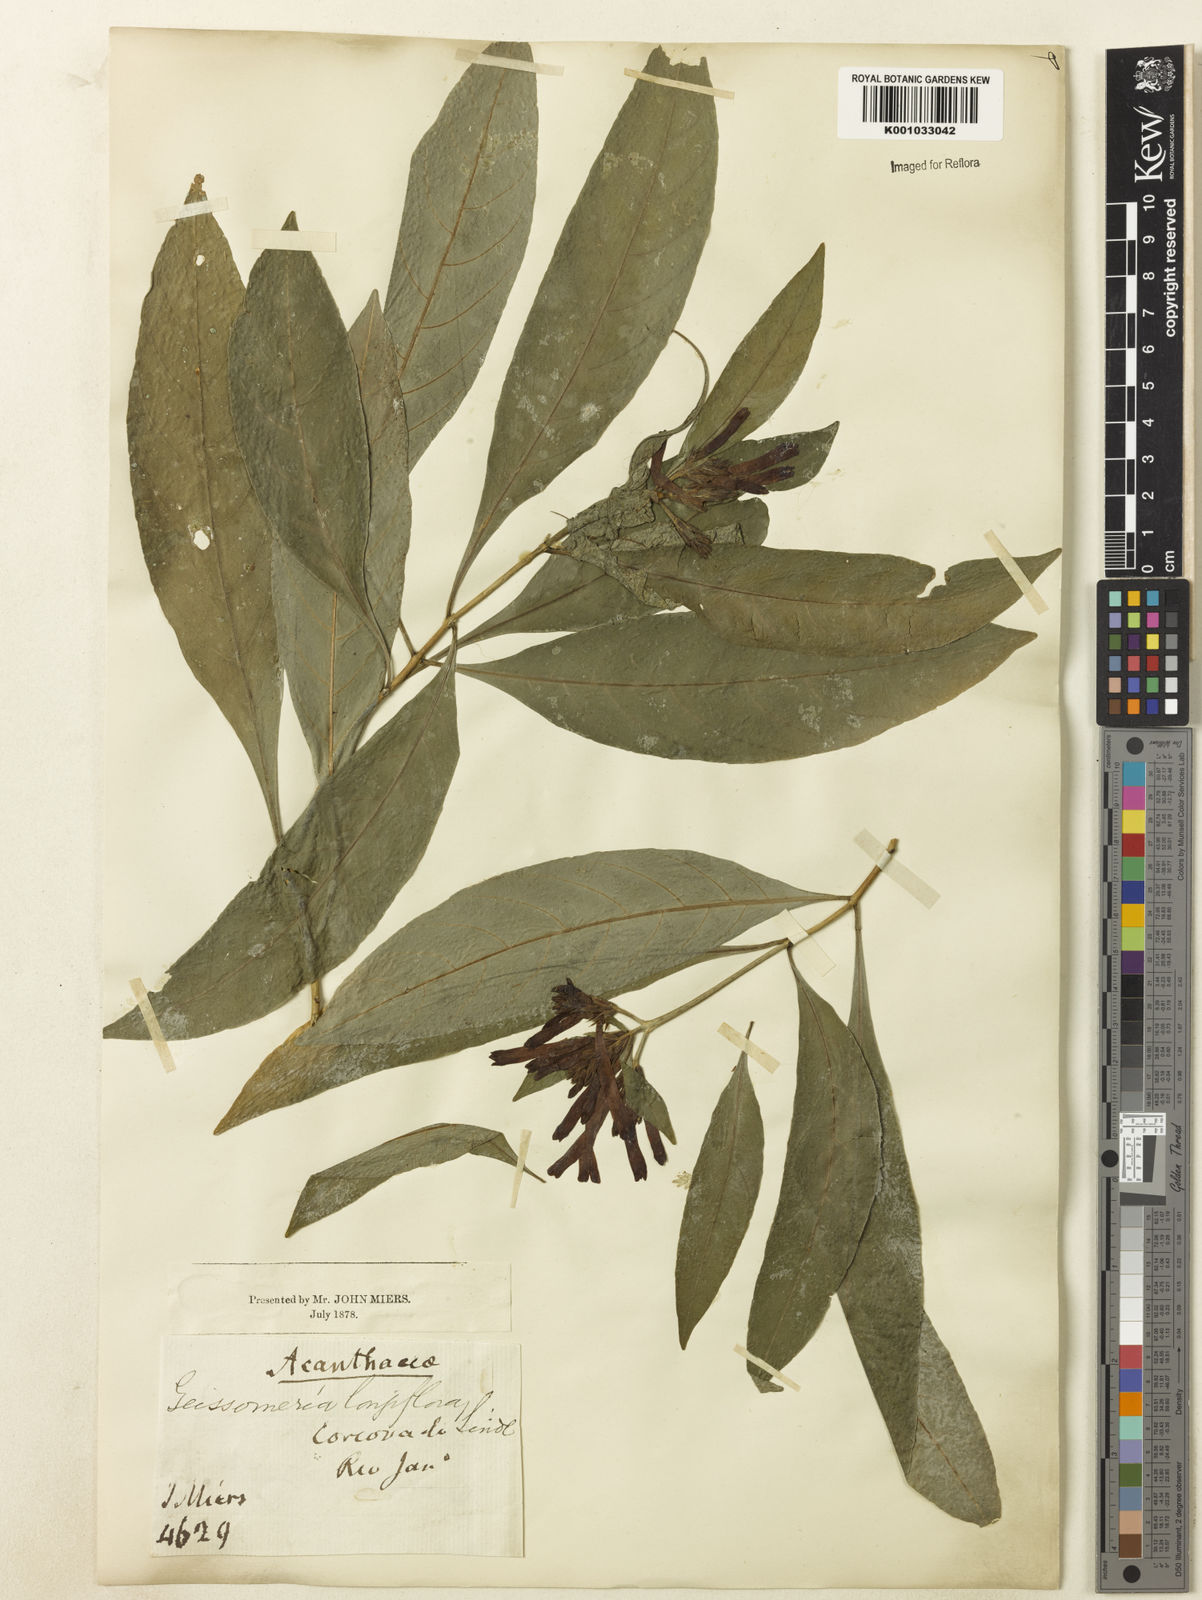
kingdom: Plantae
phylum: Tracheophyta
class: Magnoliopsida
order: Lamiales
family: Acanthaceae
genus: Aphelandra
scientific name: Aphelandra longiflora
